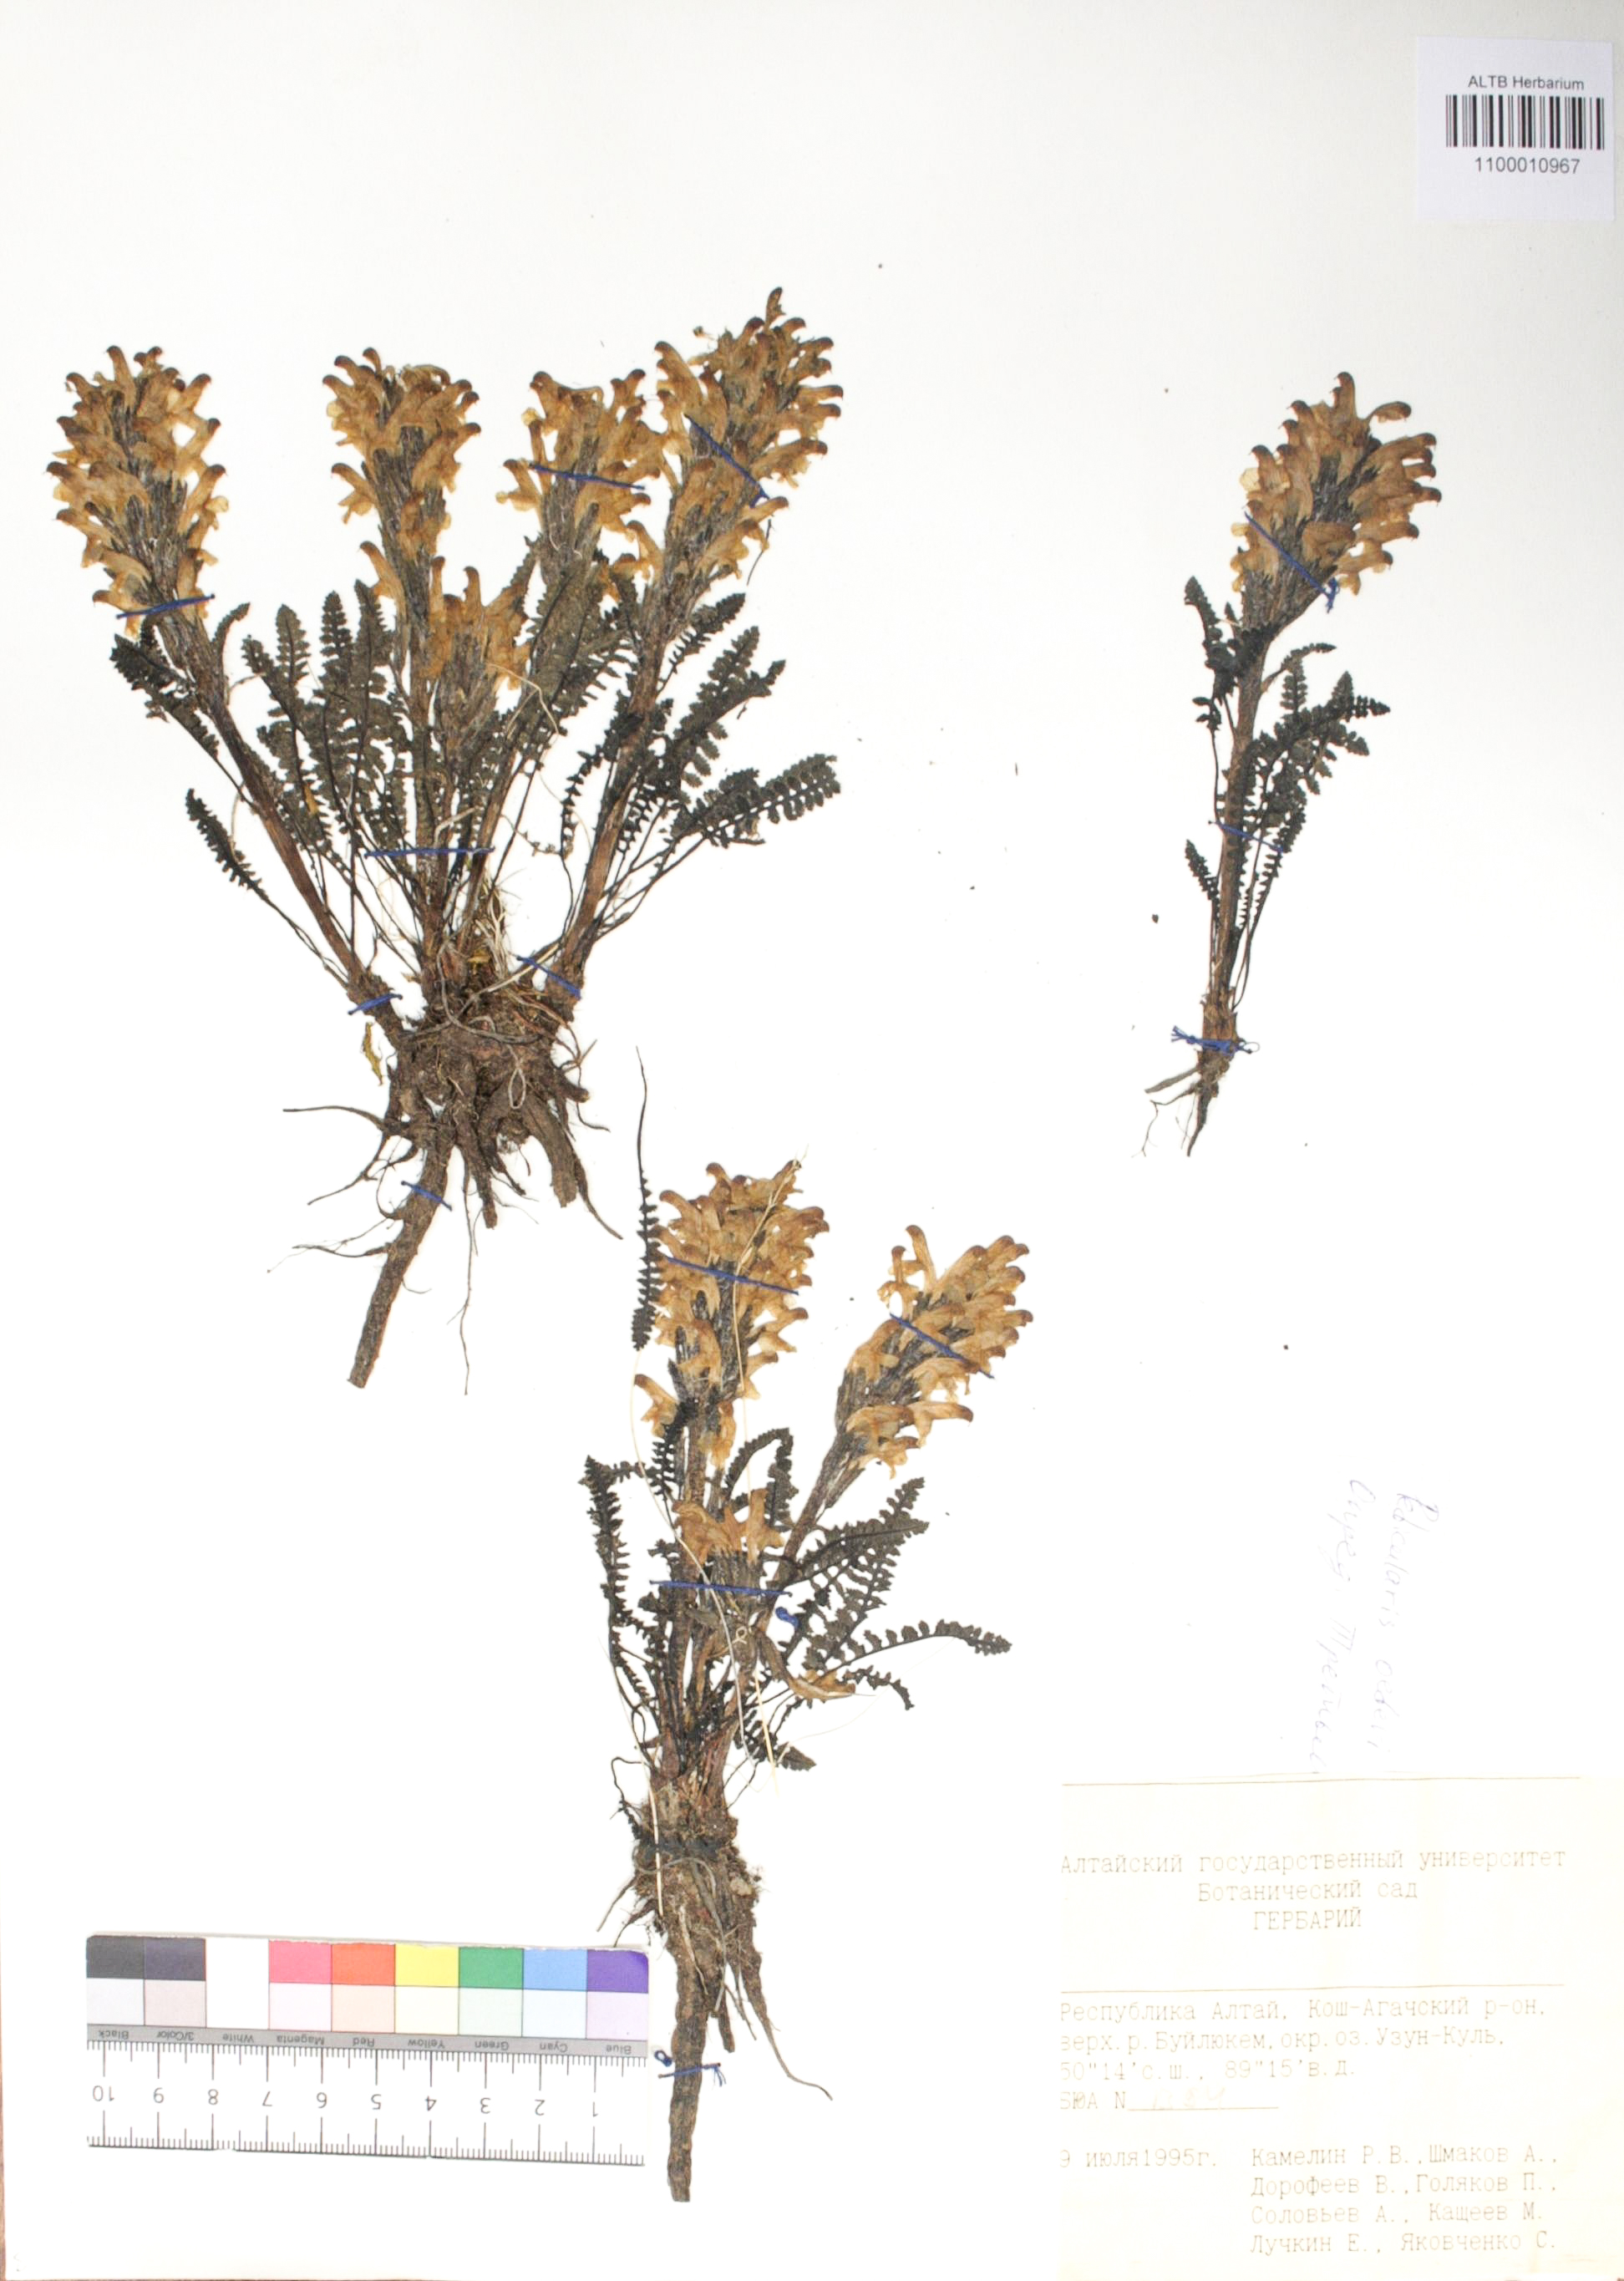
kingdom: Plantae
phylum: Tracheophyta
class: Magnoliopsida
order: Caryophyllales
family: Caryophyllaceae
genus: Silene
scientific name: Silene graminifolia
